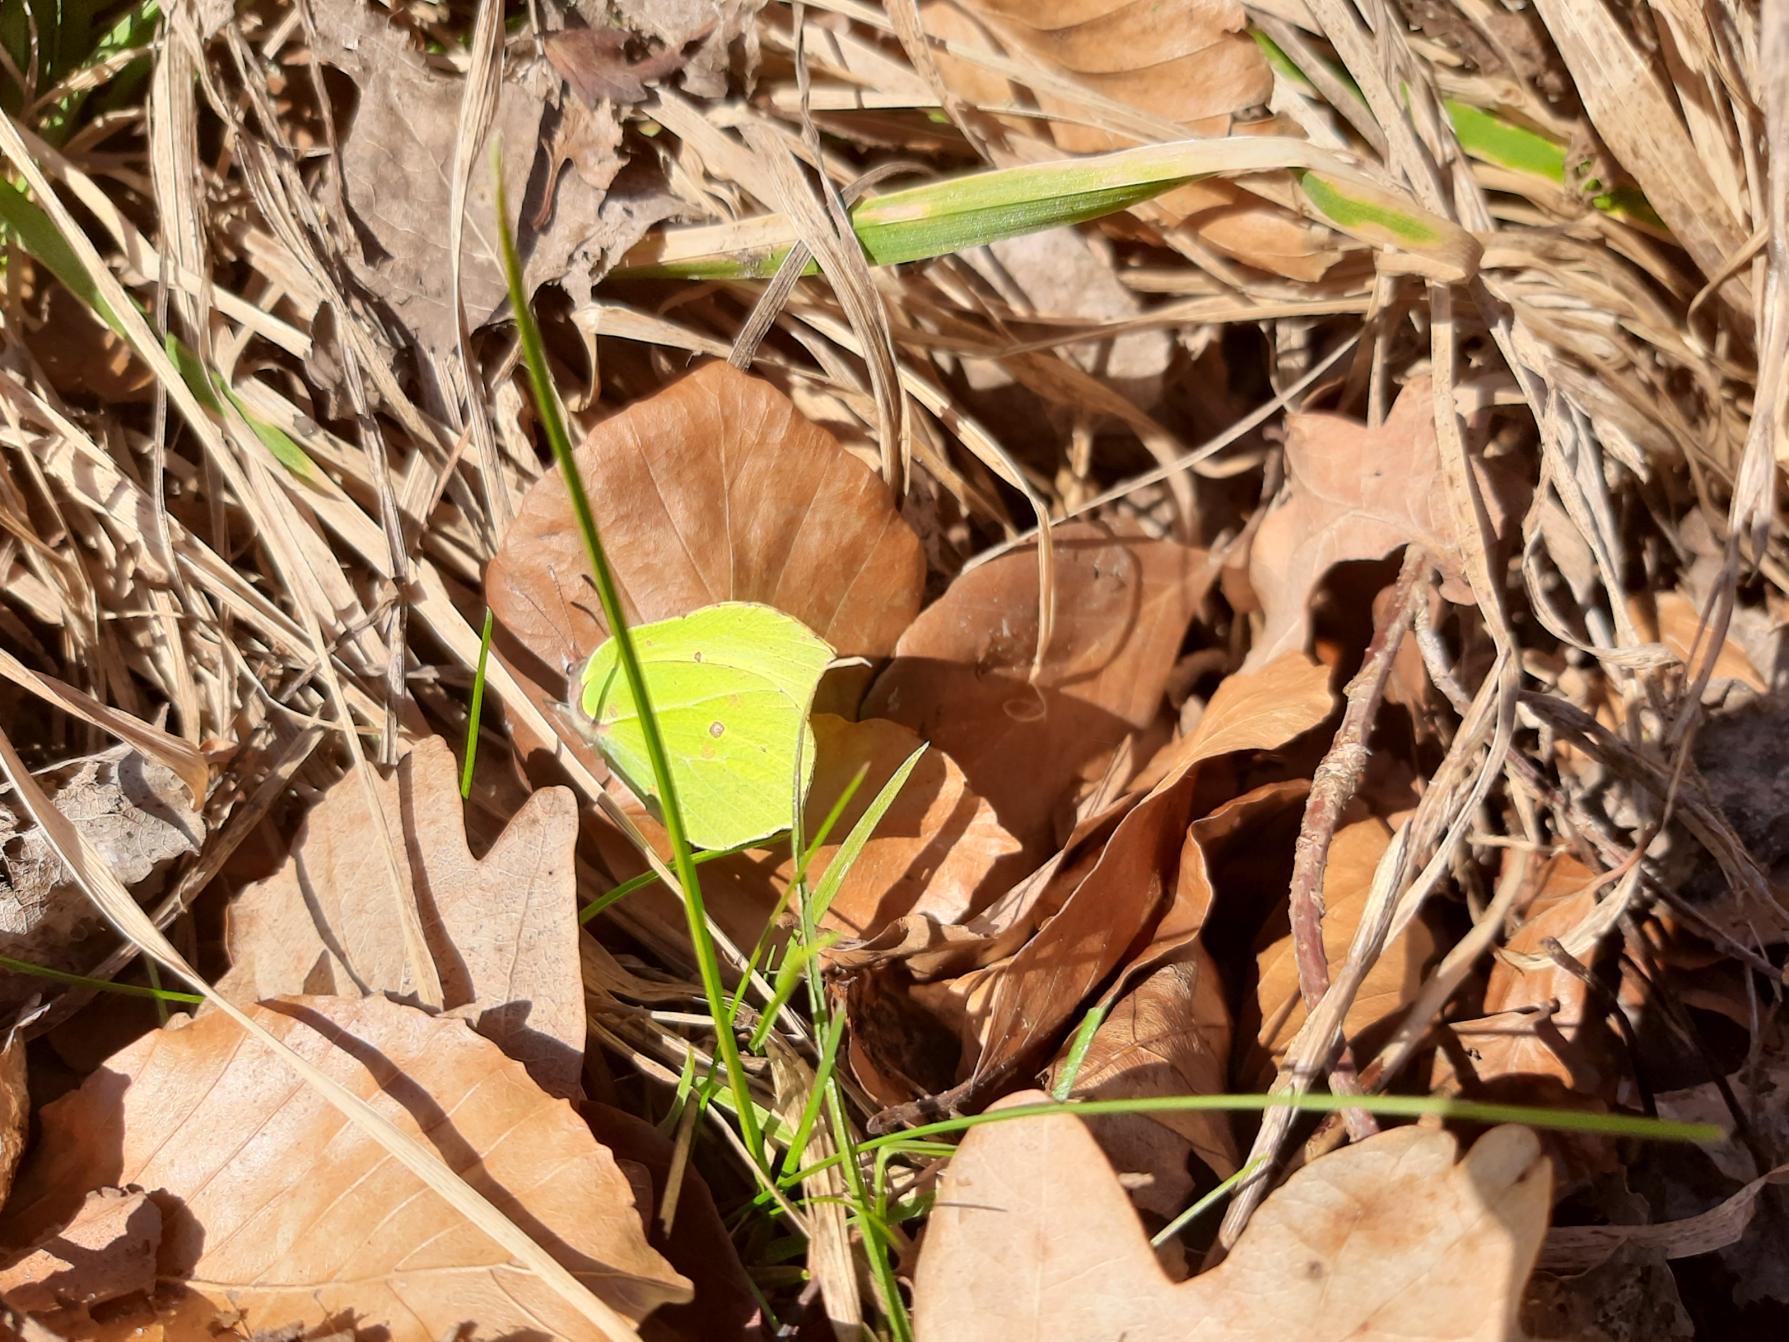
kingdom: Animalia
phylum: Arthropoda
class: Insecta
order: Lepidoptera
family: Pieridae
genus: Gonepteryx
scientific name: Gonepteryx rhamni
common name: Citronsommerfugl
